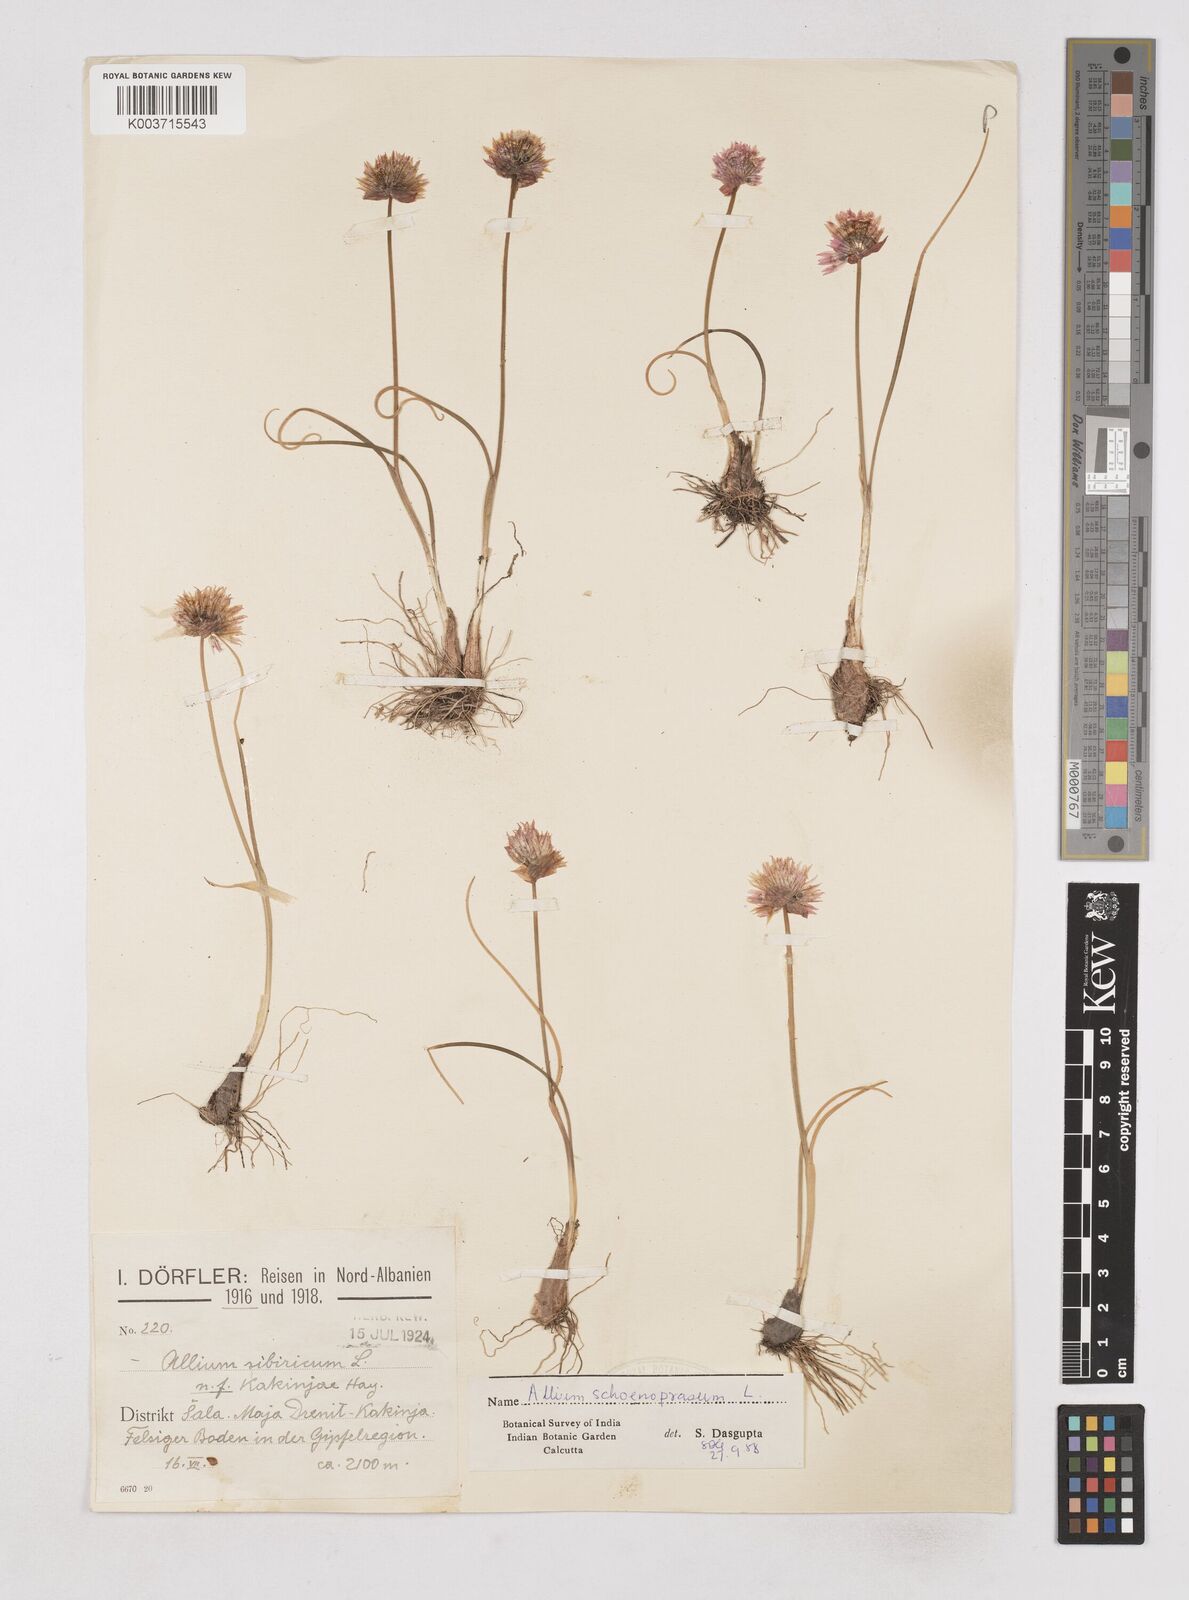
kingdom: Plantae
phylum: Tracheophyta
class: Liliopsida
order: Asparagales
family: Amaryllidaceae
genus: Allium
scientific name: Allium schoenoprasum
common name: Chives
